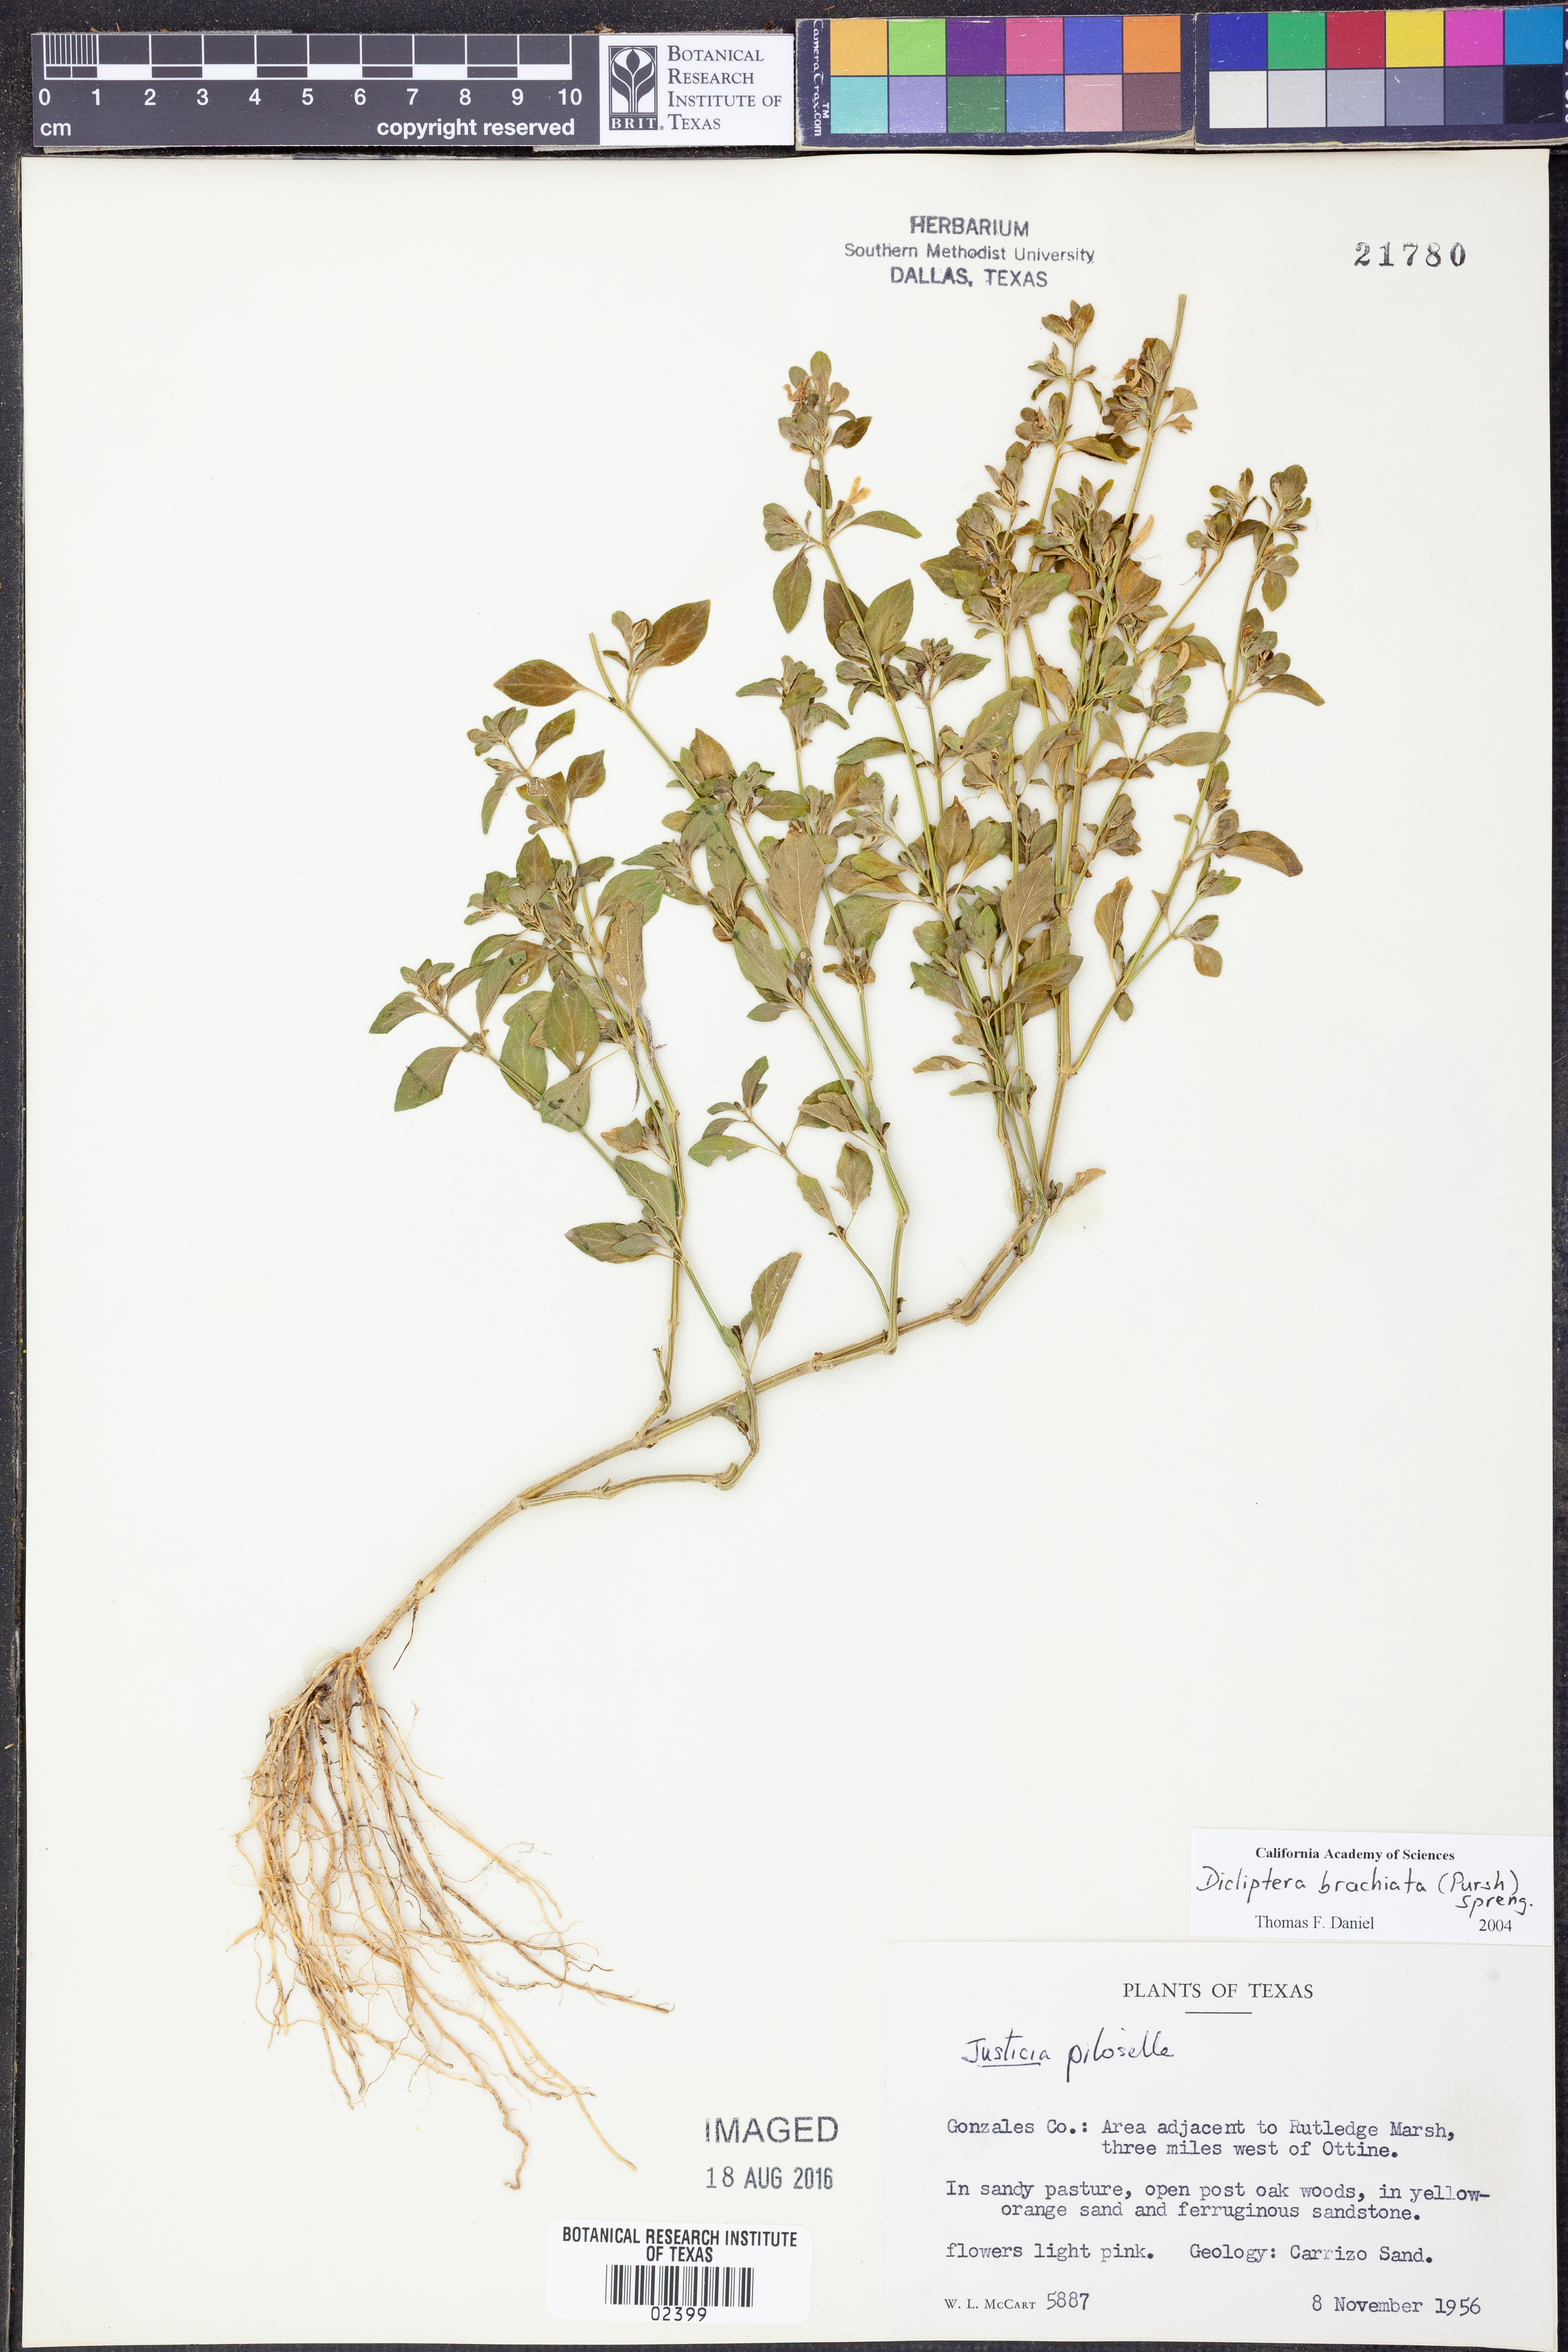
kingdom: Plantae
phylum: Tracheophyta
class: Magnoliopsida
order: Lamiales
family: Acanthaceae
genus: Dicliptera
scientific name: Dicliptera brachiata
